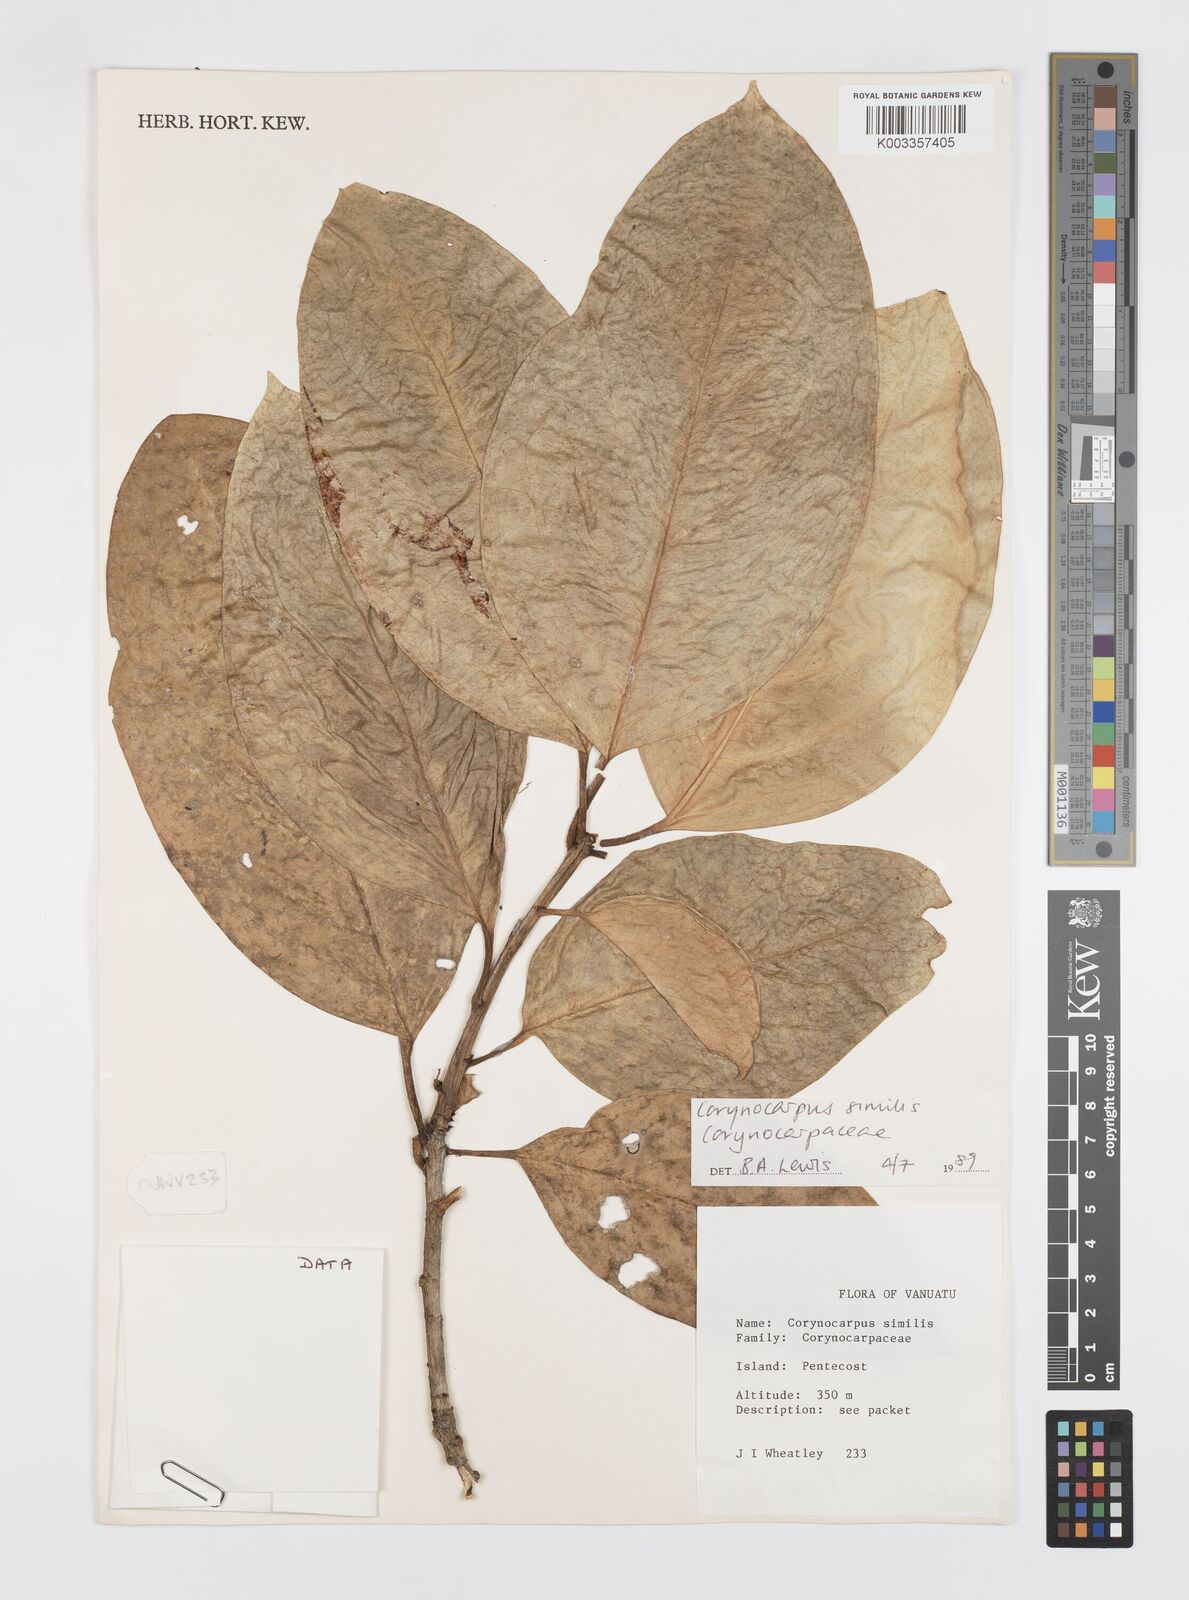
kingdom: Plantae
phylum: Tracheophyta
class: Magnoliopsida
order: Cucurbitales
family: Corynocarpaceae
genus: Corynocarpus
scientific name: Corynocarpus similis
